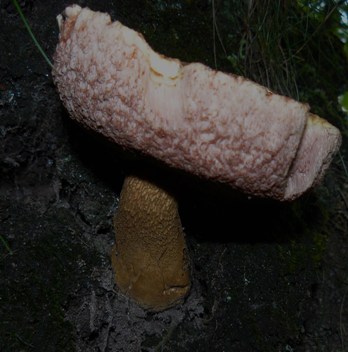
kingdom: Fungi
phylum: Basidiomycota
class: Agaricomycetes
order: Boletales
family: Boletaceae
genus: Tylopilus
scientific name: Tylopilus felleus
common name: galderørhat
